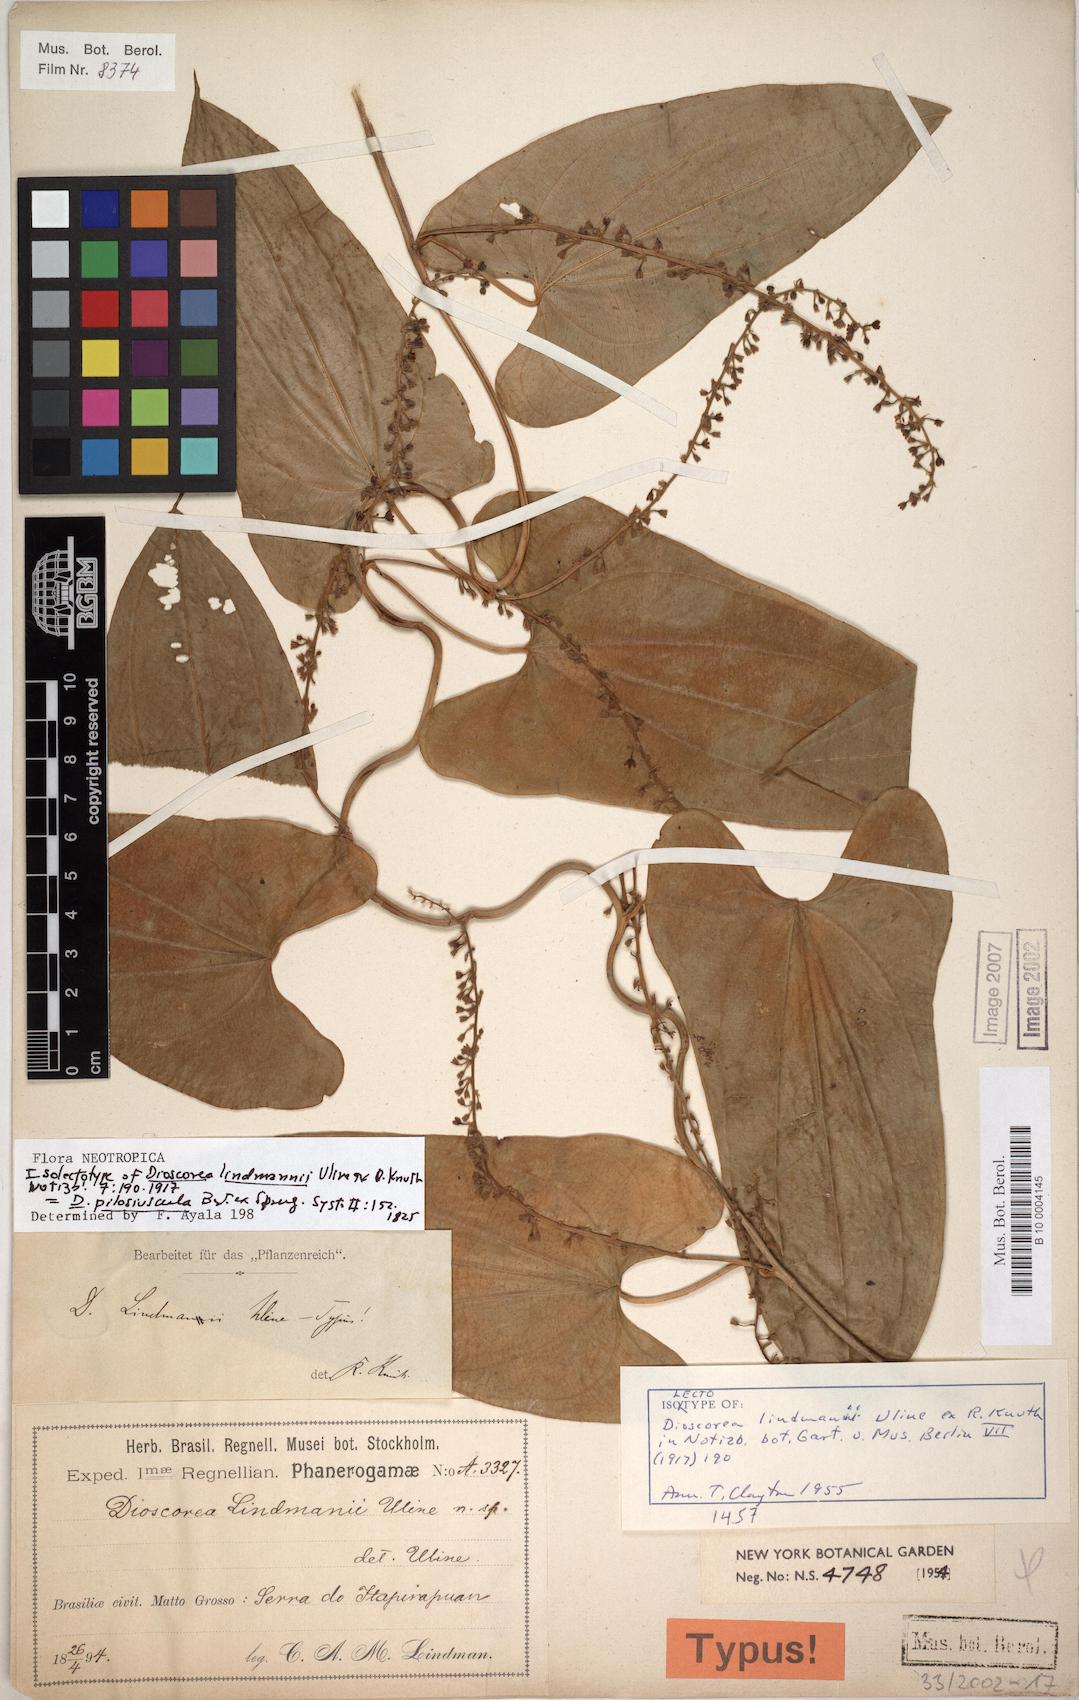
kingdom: Plantae
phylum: Tracheophyta
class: Liliopsida
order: Dioscoreales
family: Dioscoreaceae
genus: Dioscorea
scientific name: Dioscorea pilosiuscula
